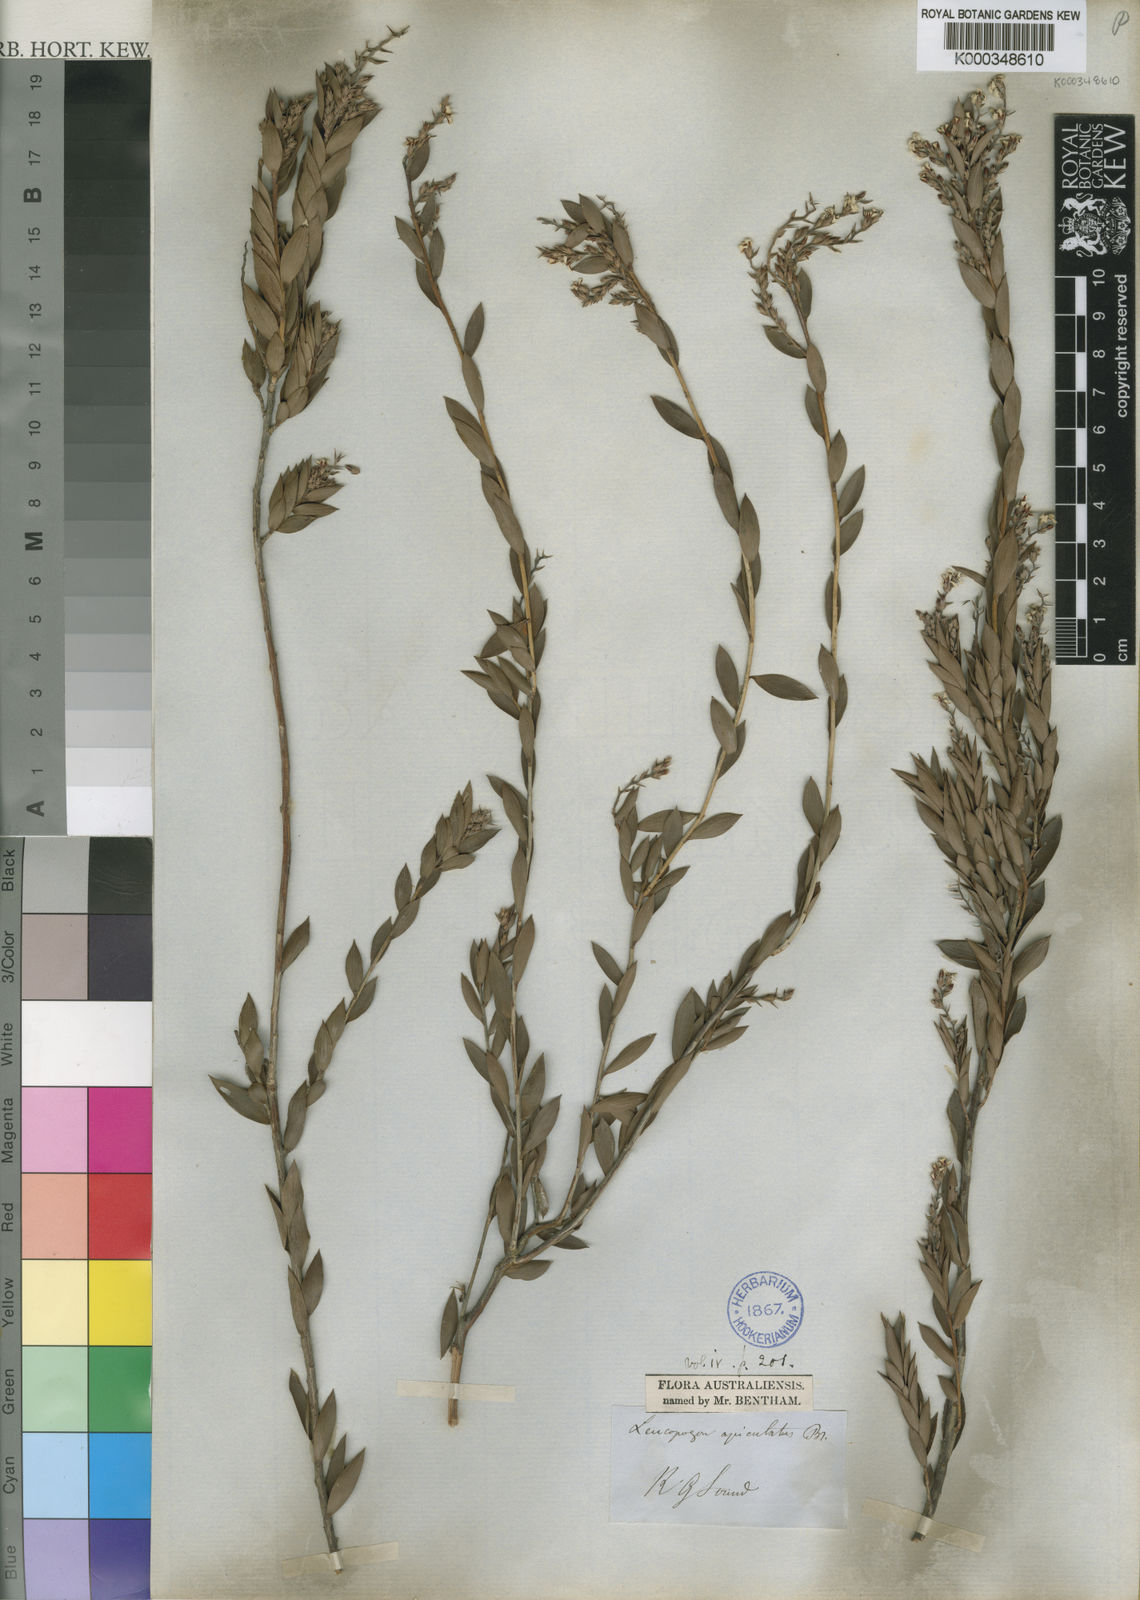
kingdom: Plantae
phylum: Tracheophyta
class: Magnoliopsida
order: Ericales
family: Ericaceae
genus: Leucopogon
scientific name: Leucopogon apiculatus
